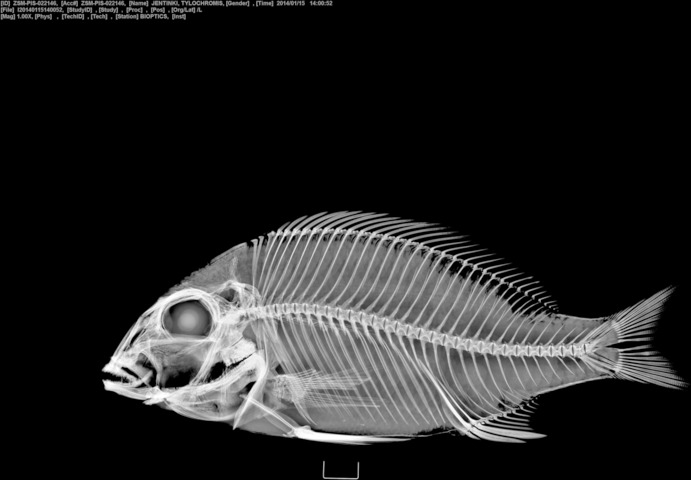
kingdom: Animalia
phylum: Chordata
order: Perciformes
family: Cichlidae
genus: Tylochromis
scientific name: Tylochromis jentinki
